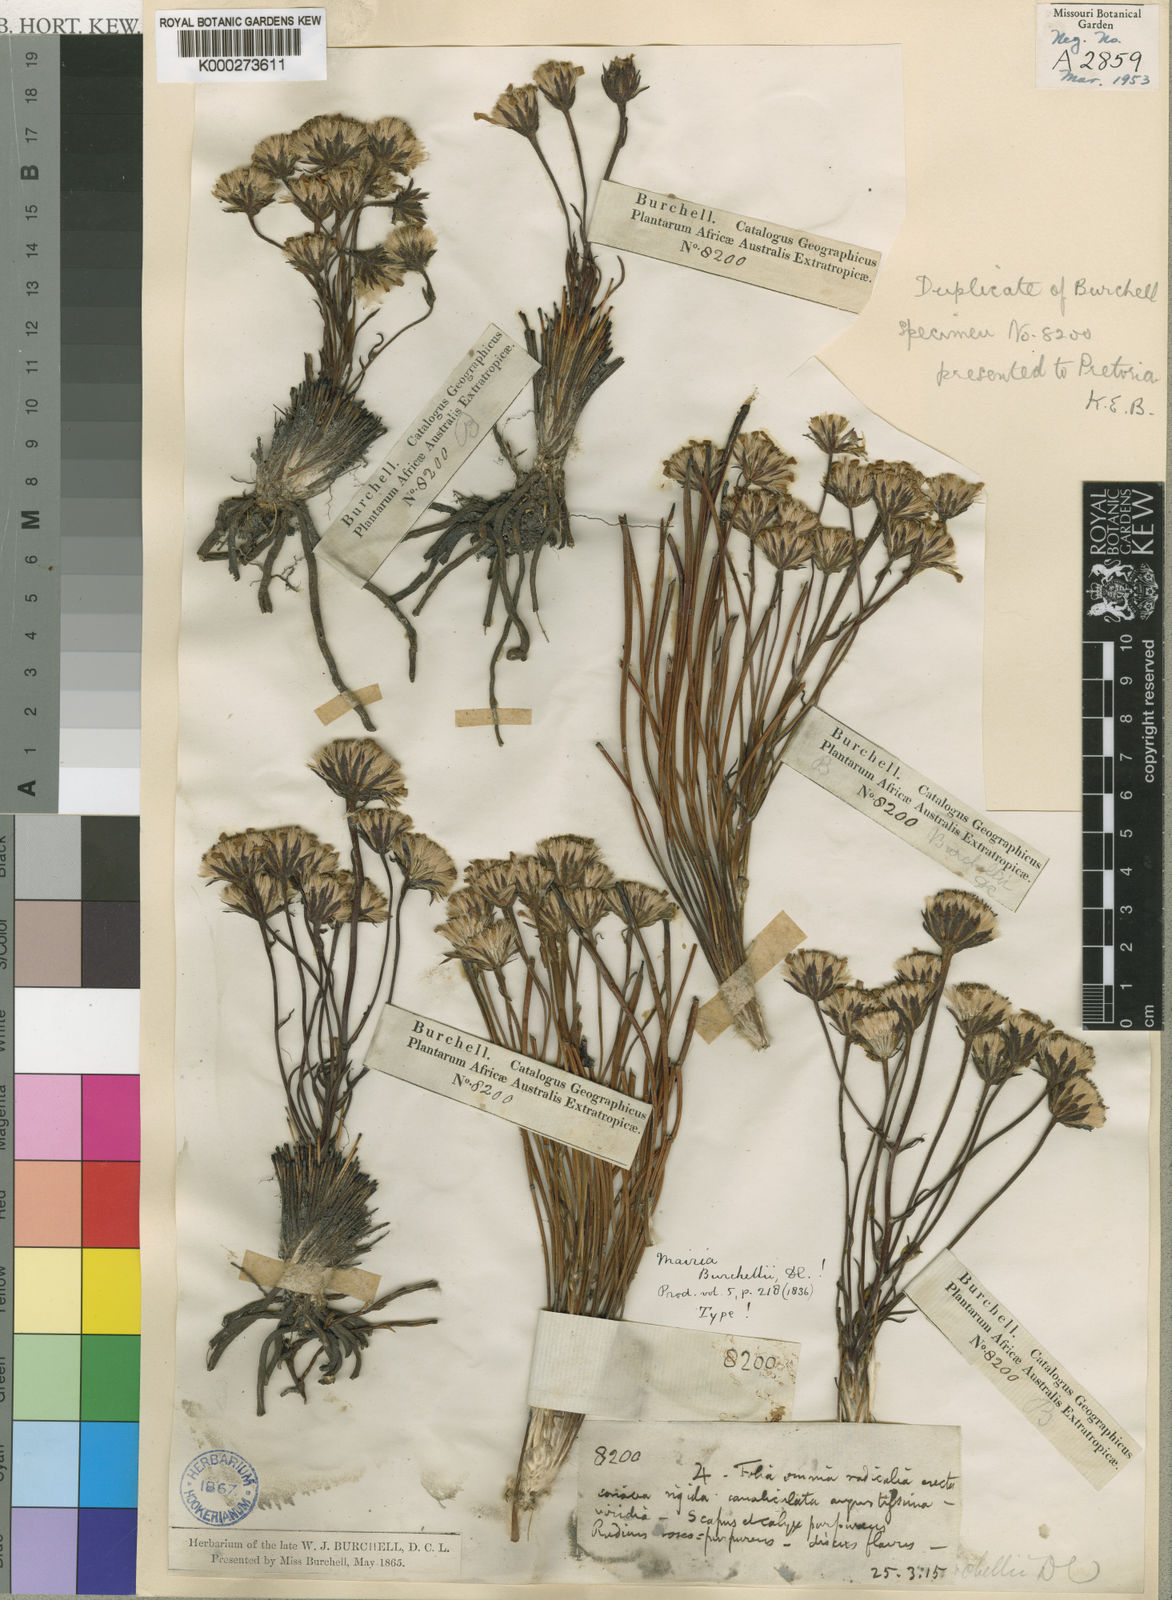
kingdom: Plantae
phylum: Tracheophyta
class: Magnoliopsida
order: Asterales
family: Asteraceae
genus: Zyrphelis
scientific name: Zyrphelis burchellii
